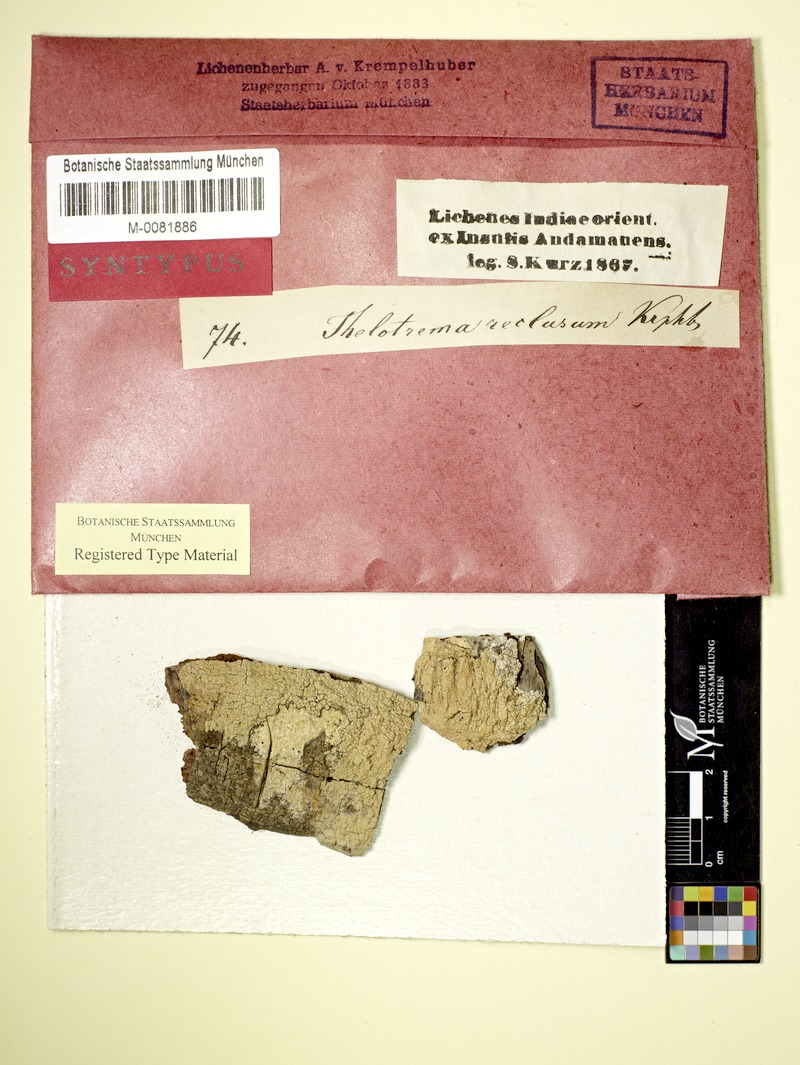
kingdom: Fungi
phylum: Ascomycota
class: Lecanoromycetes
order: Ostropales
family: Graphidaceae
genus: Leucodecton
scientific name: Leucodecton compunctellum
